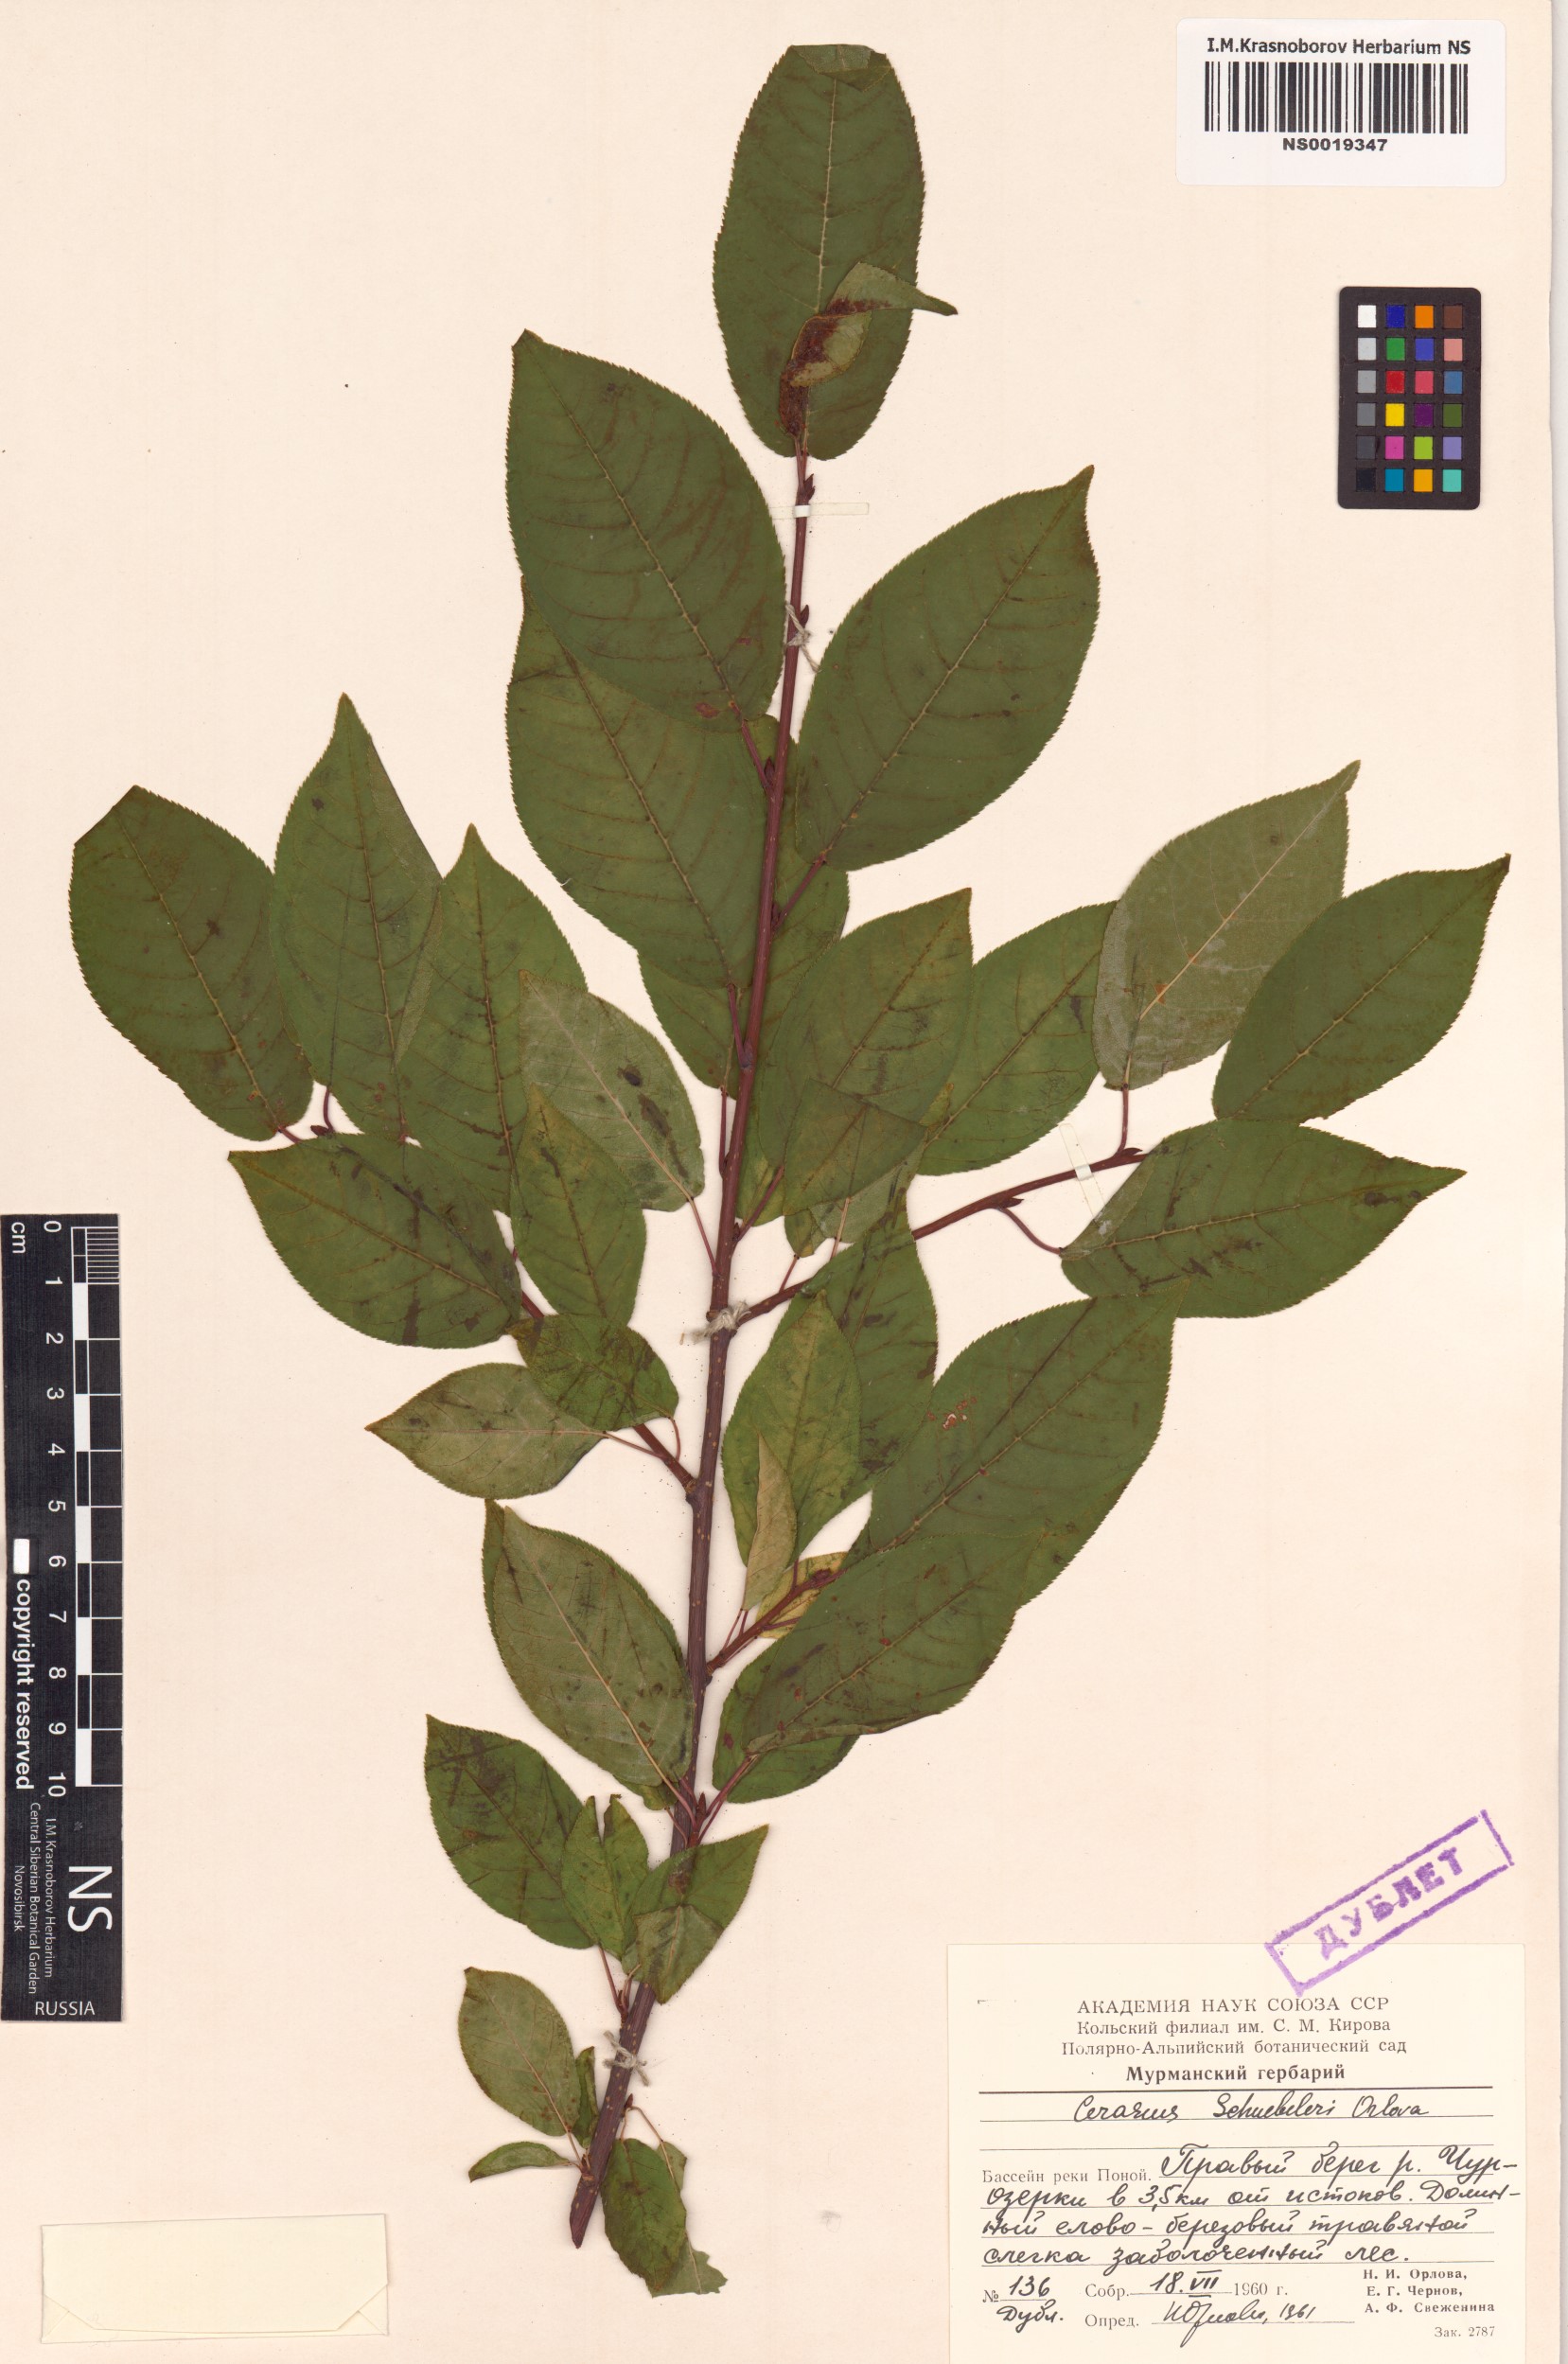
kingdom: Plantae
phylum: Tracheophyta
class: Magnoliopsida
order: Rosales
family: Rosaceae
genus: Prunus
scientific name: Prunus padus
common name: Bird cherry
